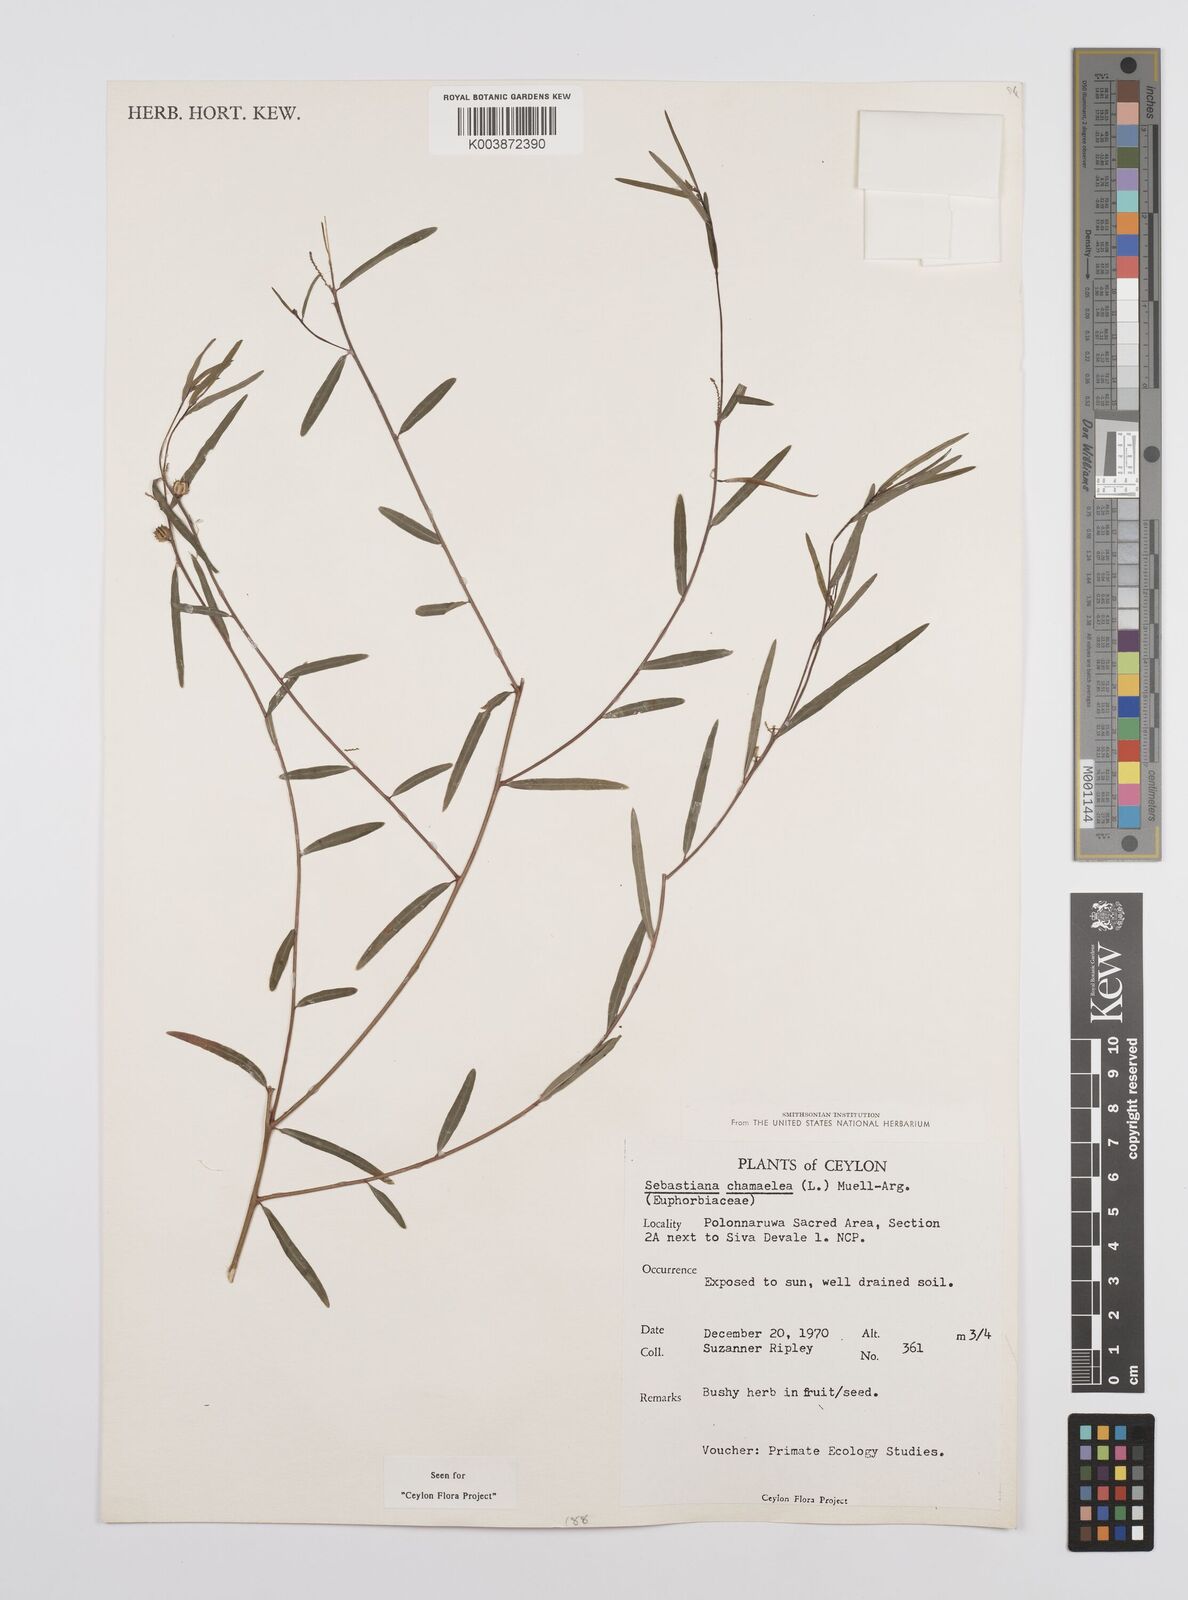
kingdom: Plantae
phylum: Tracheophyta
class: Magnoliopsida
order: Malpighiales
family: Euphorbiaceae
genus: Microstachys
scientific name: Microstachys chamaelea
